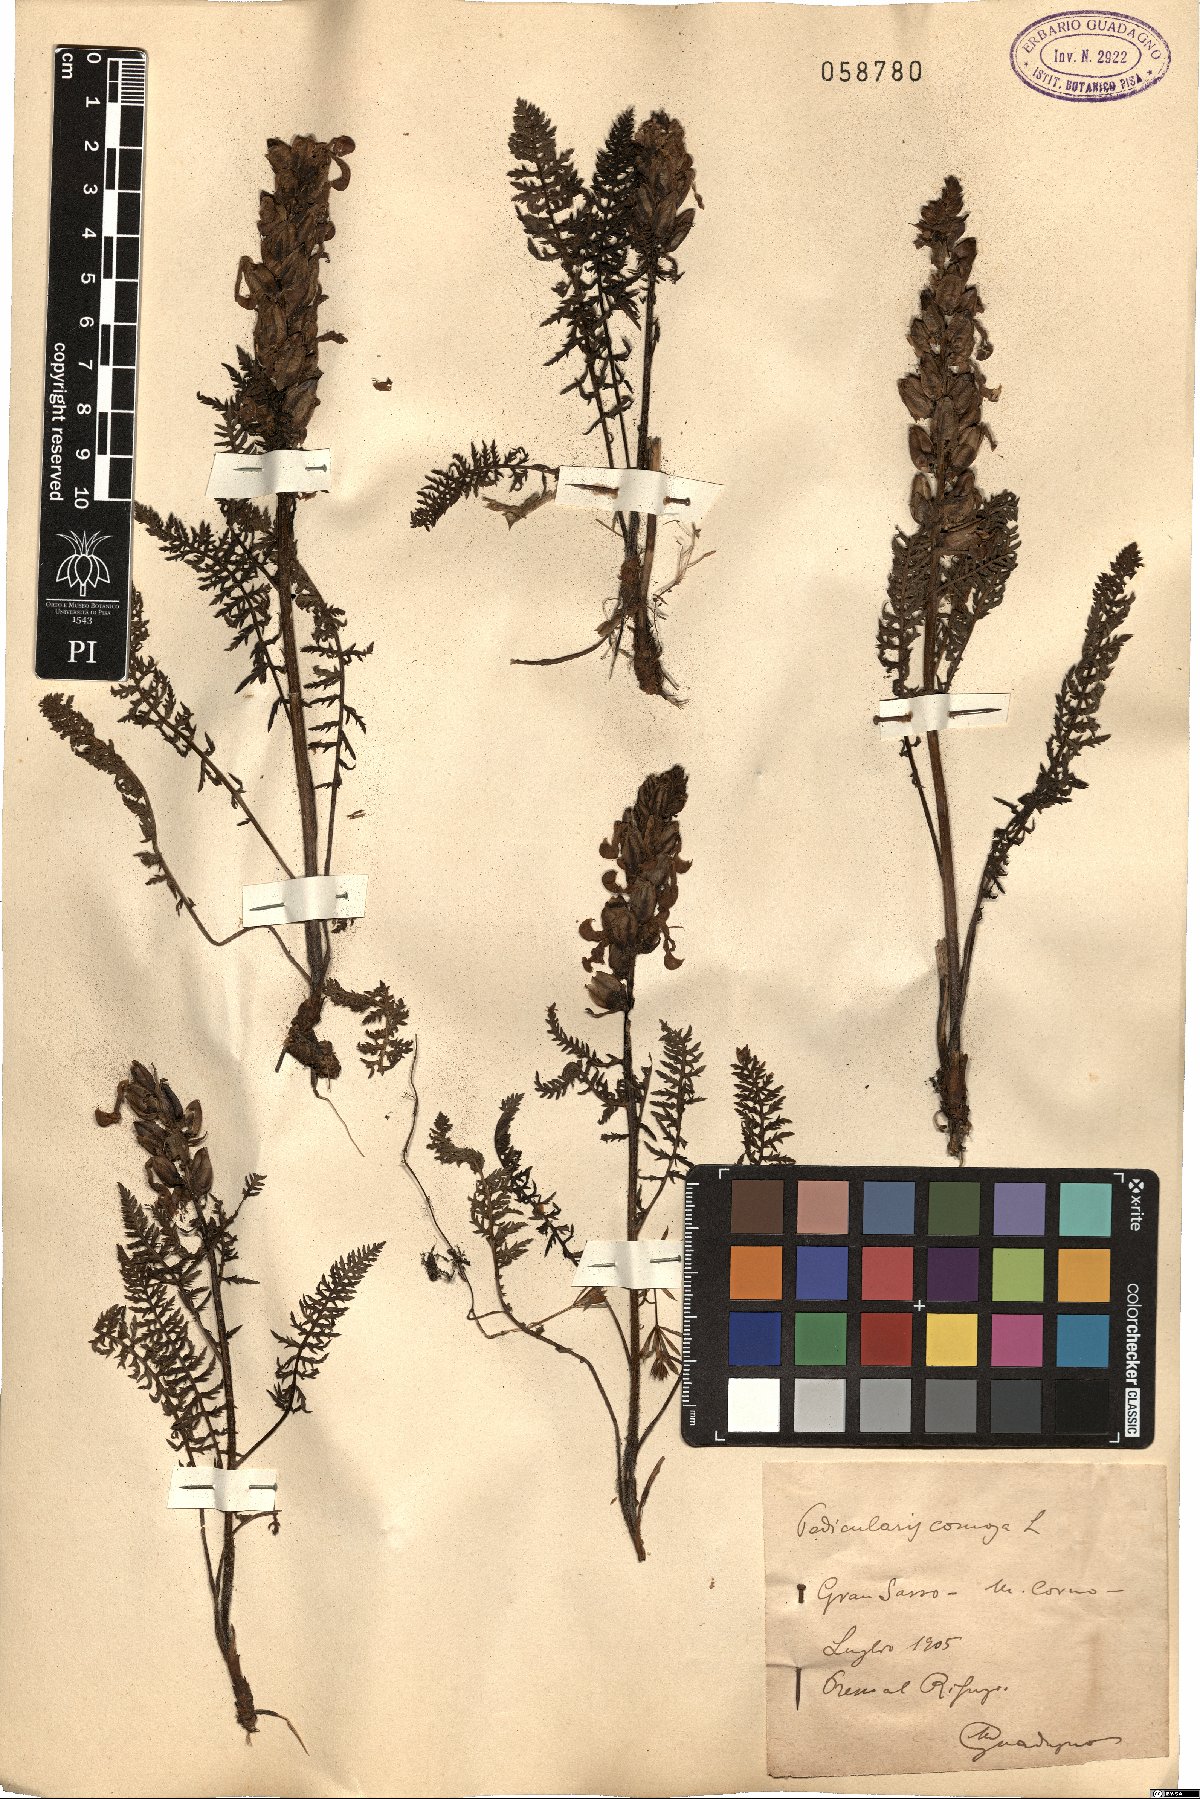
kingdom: Plantae
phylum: Tracheophyta
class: Magnoliopsida
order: Lamiales
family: Orobanchaceae
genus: Pedicularis
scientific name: Pedicularis comosa
